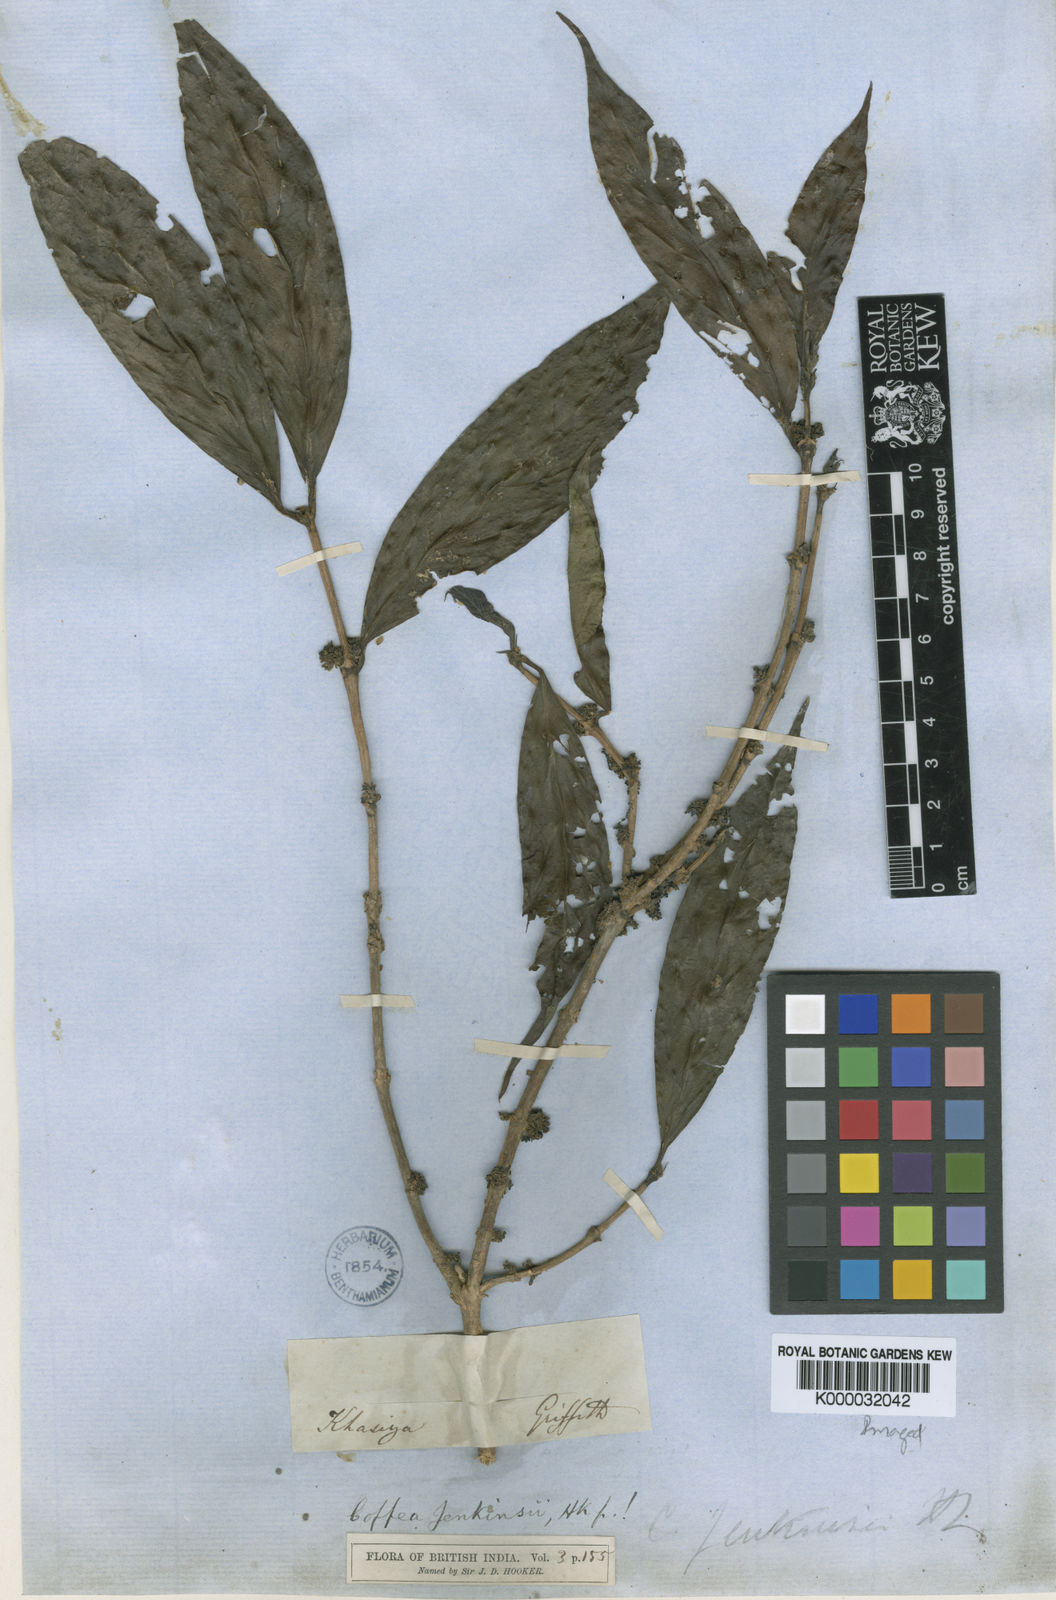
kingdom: Plantae
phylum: Tracheophyta
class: Magnoliopsida
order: Gentianales
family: Rubiaceae
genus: Nostolachma
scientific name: Nostolachma jenkinsii
